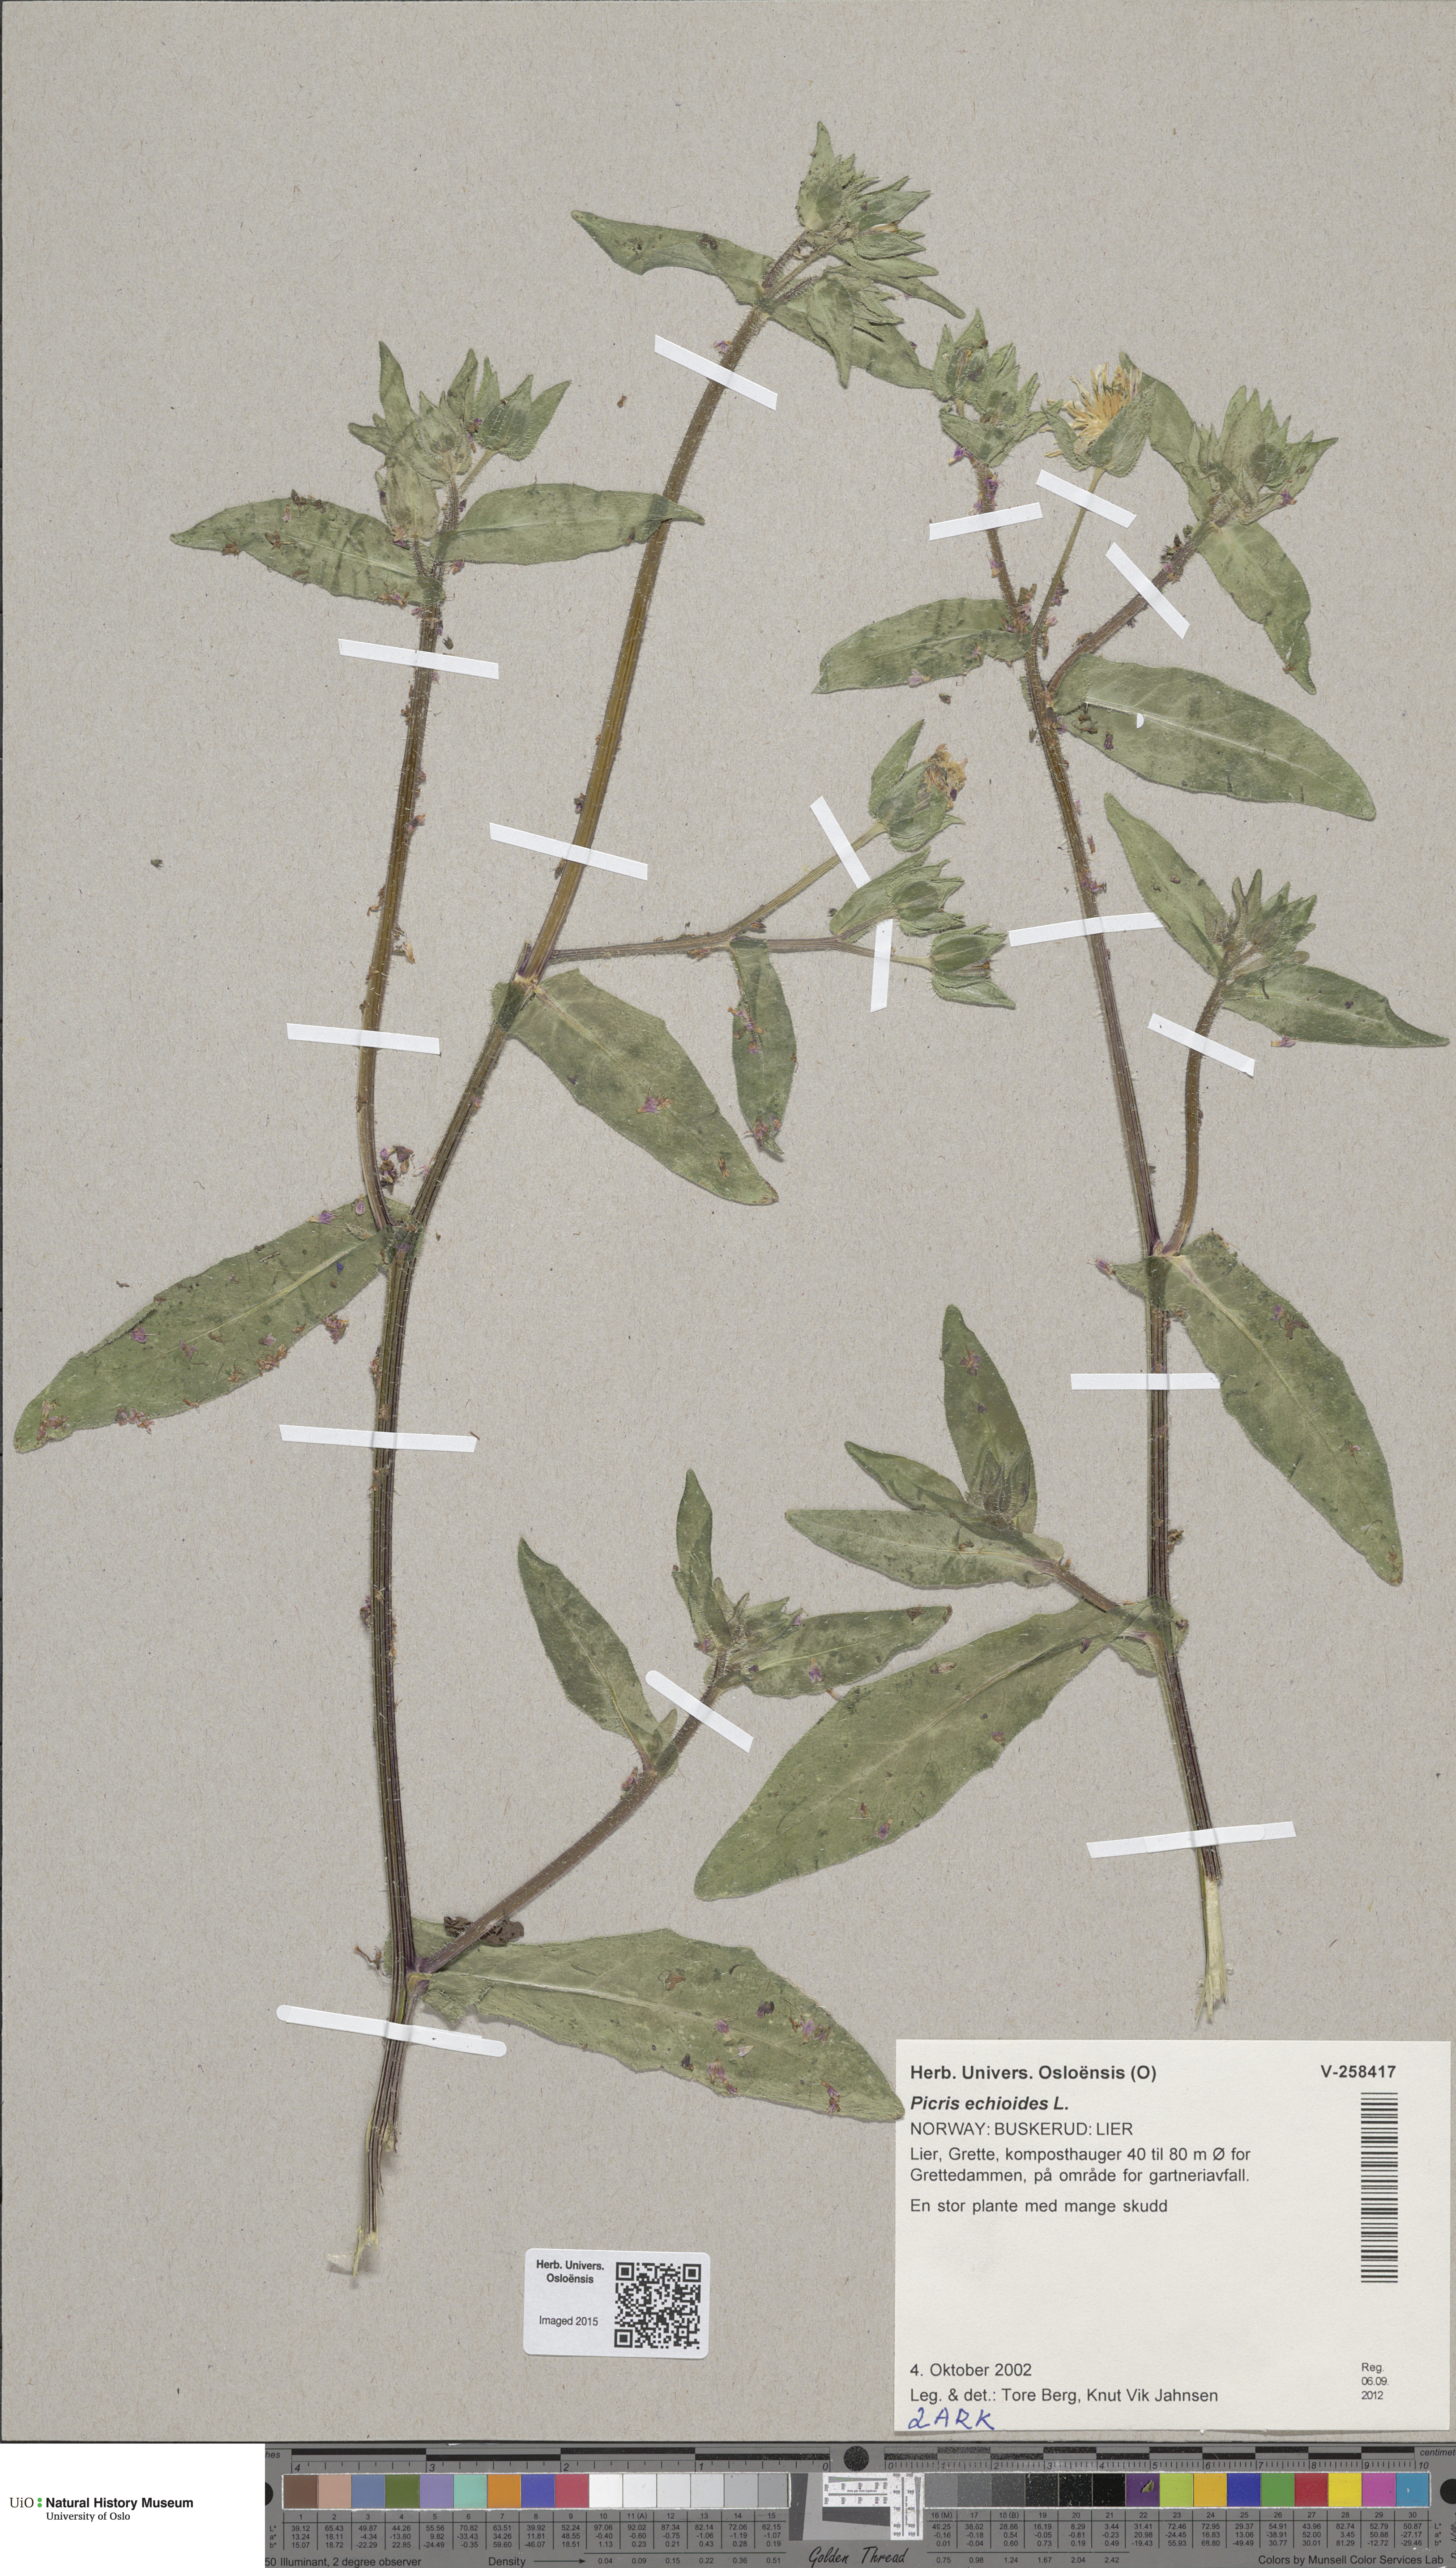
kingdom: Plantae
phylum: Tracheophyta
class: Magnoliopsida
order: Asterales
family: Asteraceae
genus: Helminthotheca
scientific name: Helminthotheca echioides
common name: Ox-tongue
